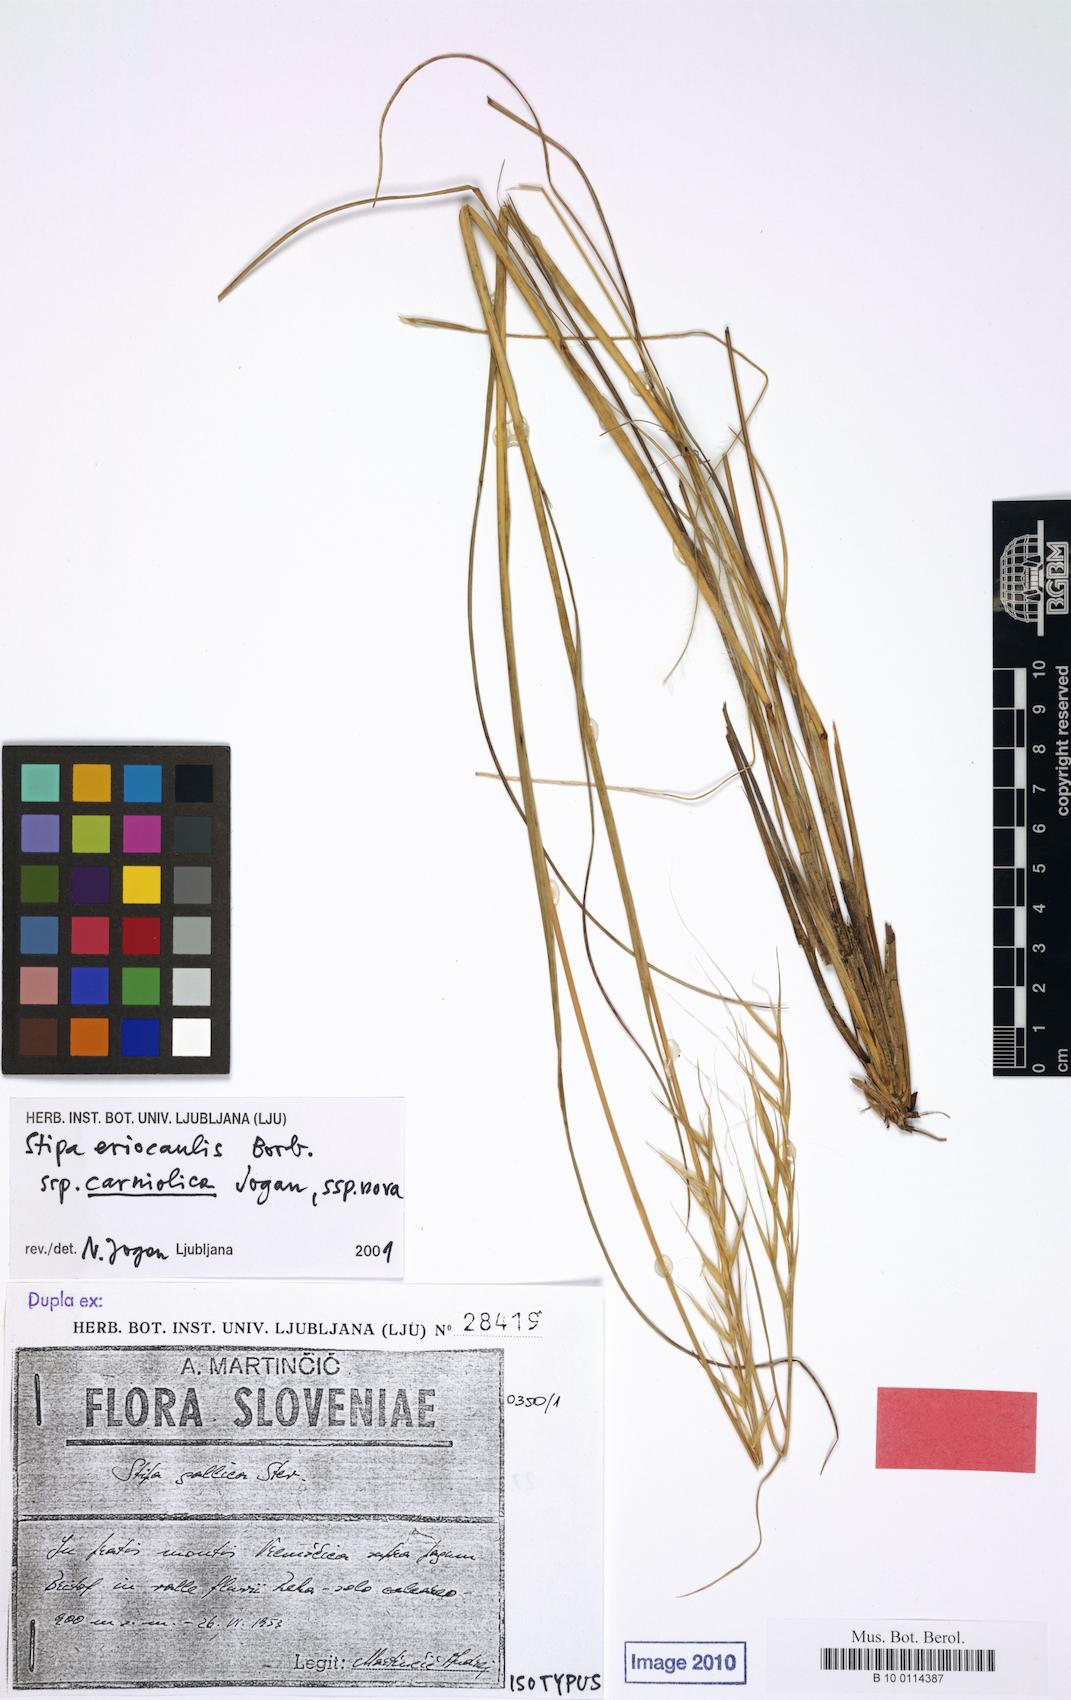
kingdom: Plantae
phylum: Tracheophyta
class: Liliopsida
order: Poales
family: Poaceae
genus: Stipa
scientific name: Stipa pennata
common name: European feather grass
